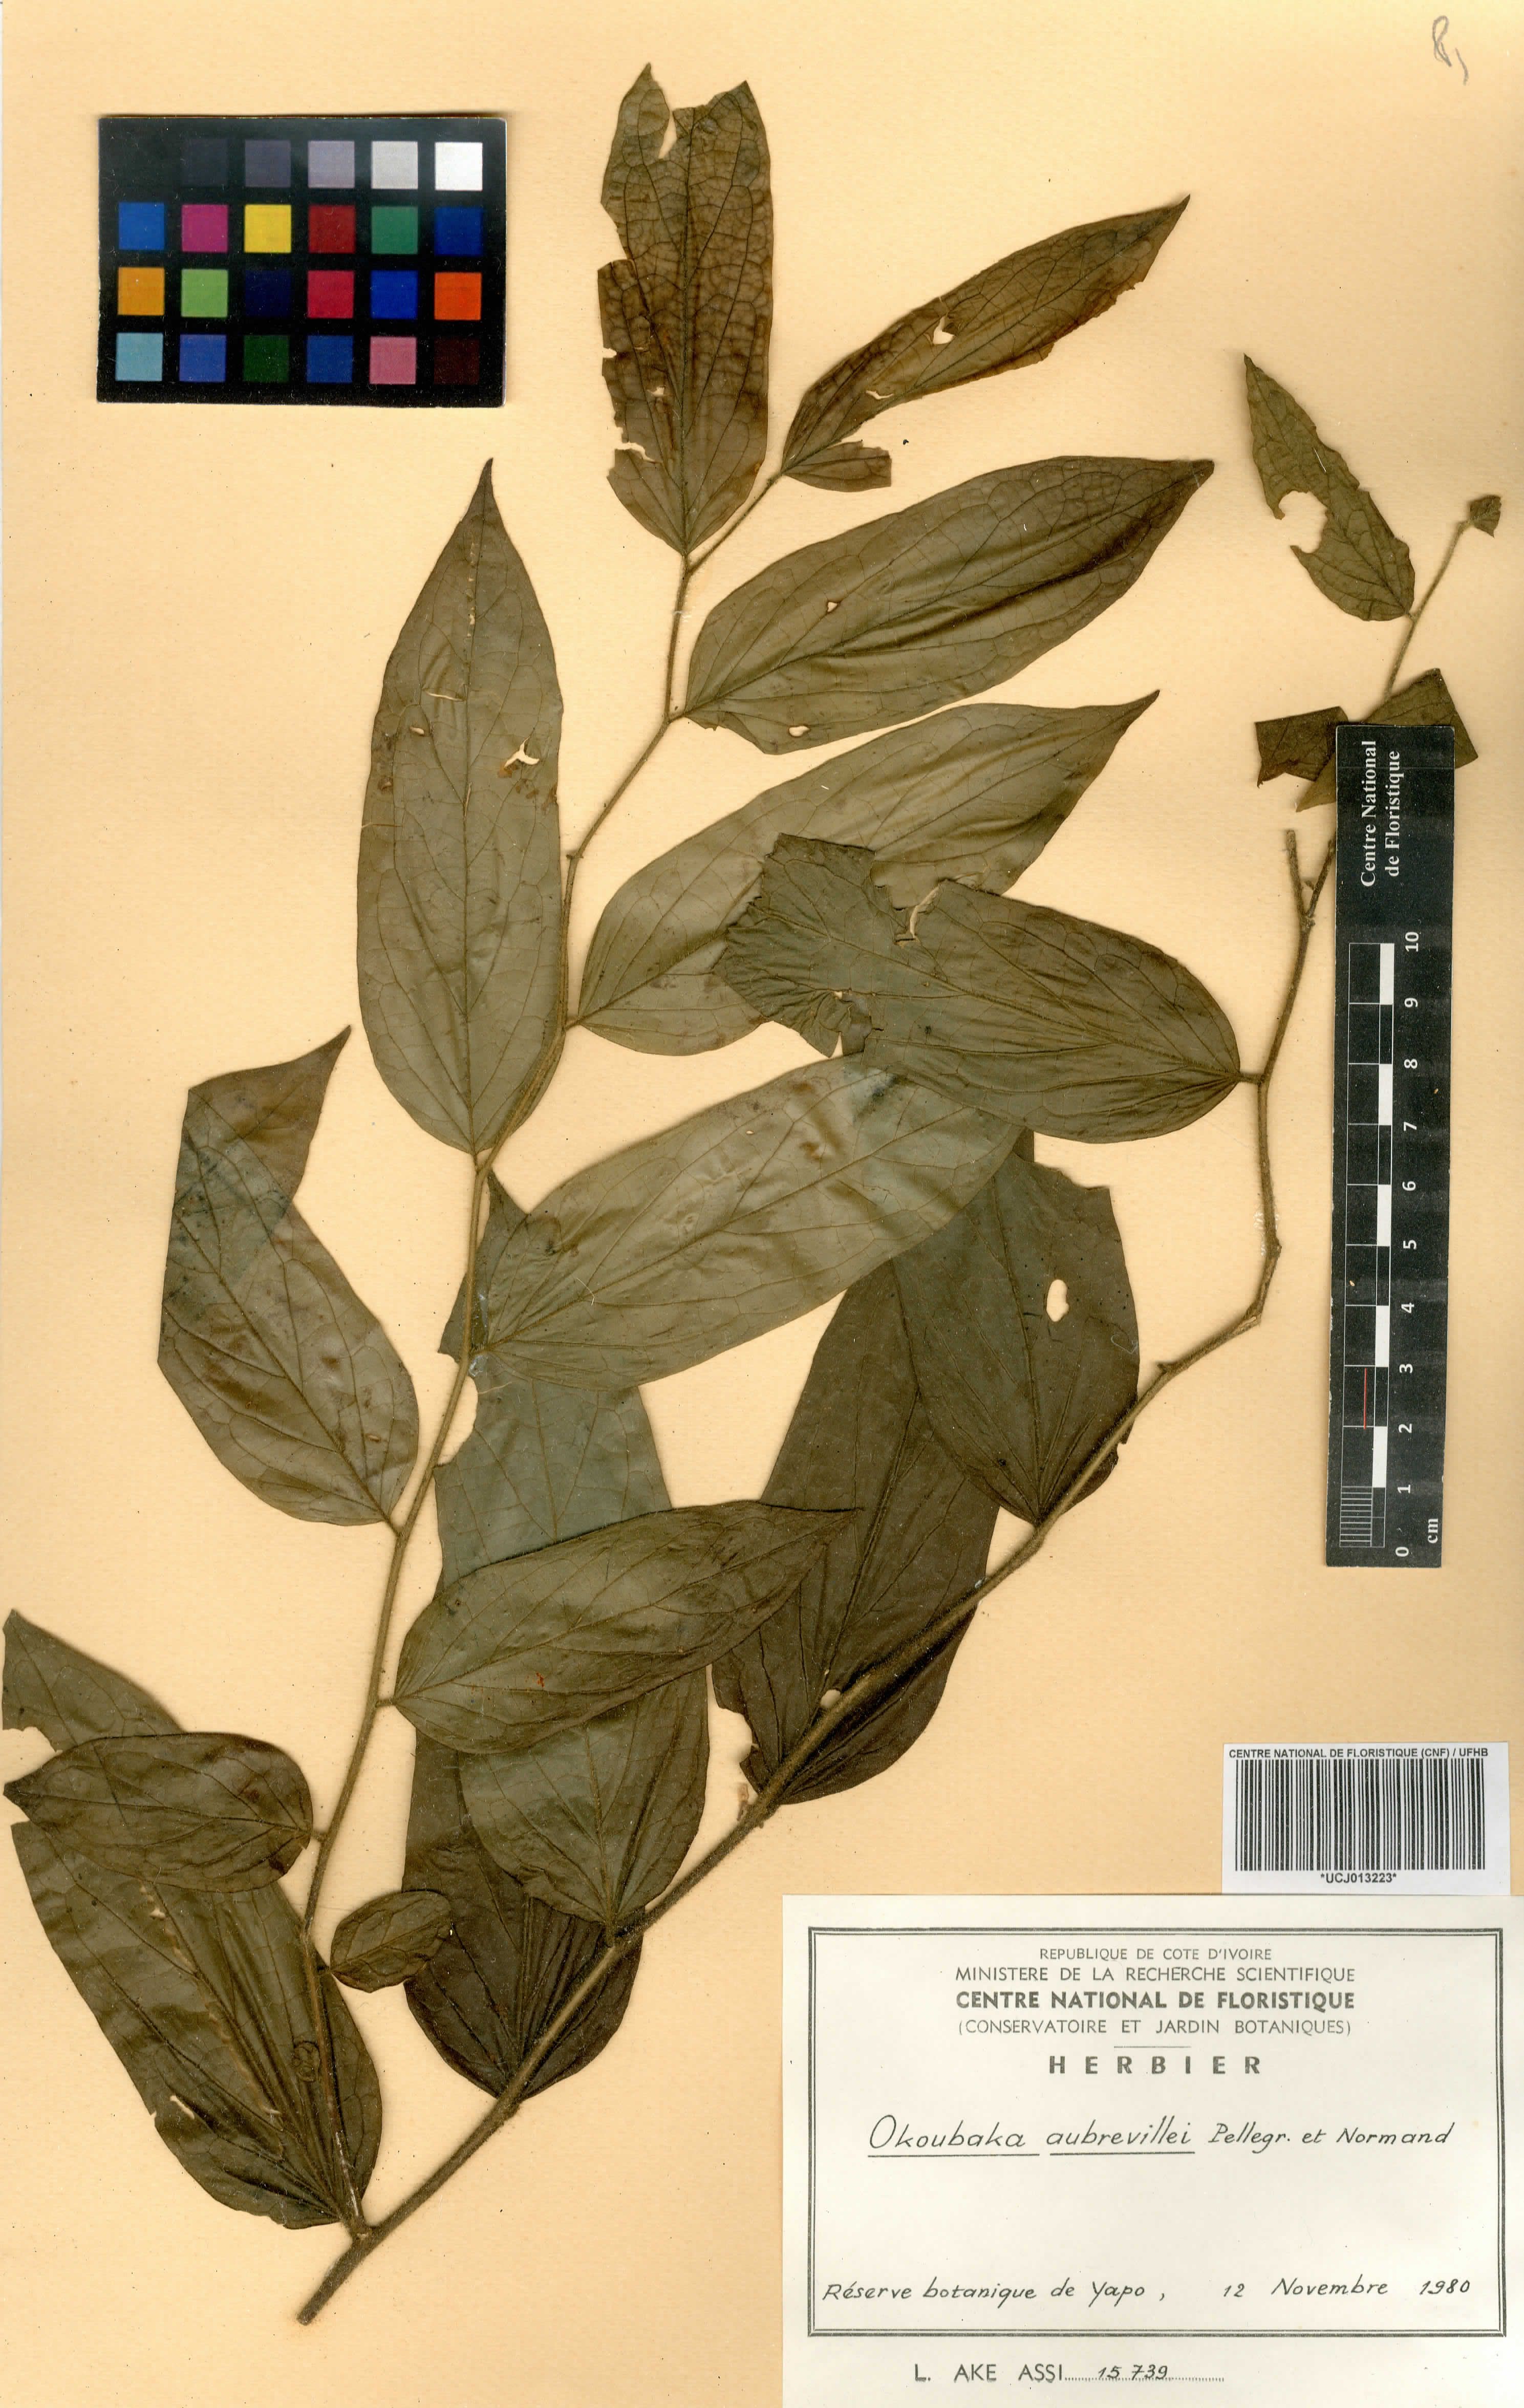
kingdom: Plantae
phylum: Tracheophyta
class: Magnoliopsida
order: Santalales
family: Cervantesiaceae
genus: Okoubaka
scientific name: Okoubaka aubrevillei
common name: Death tree
